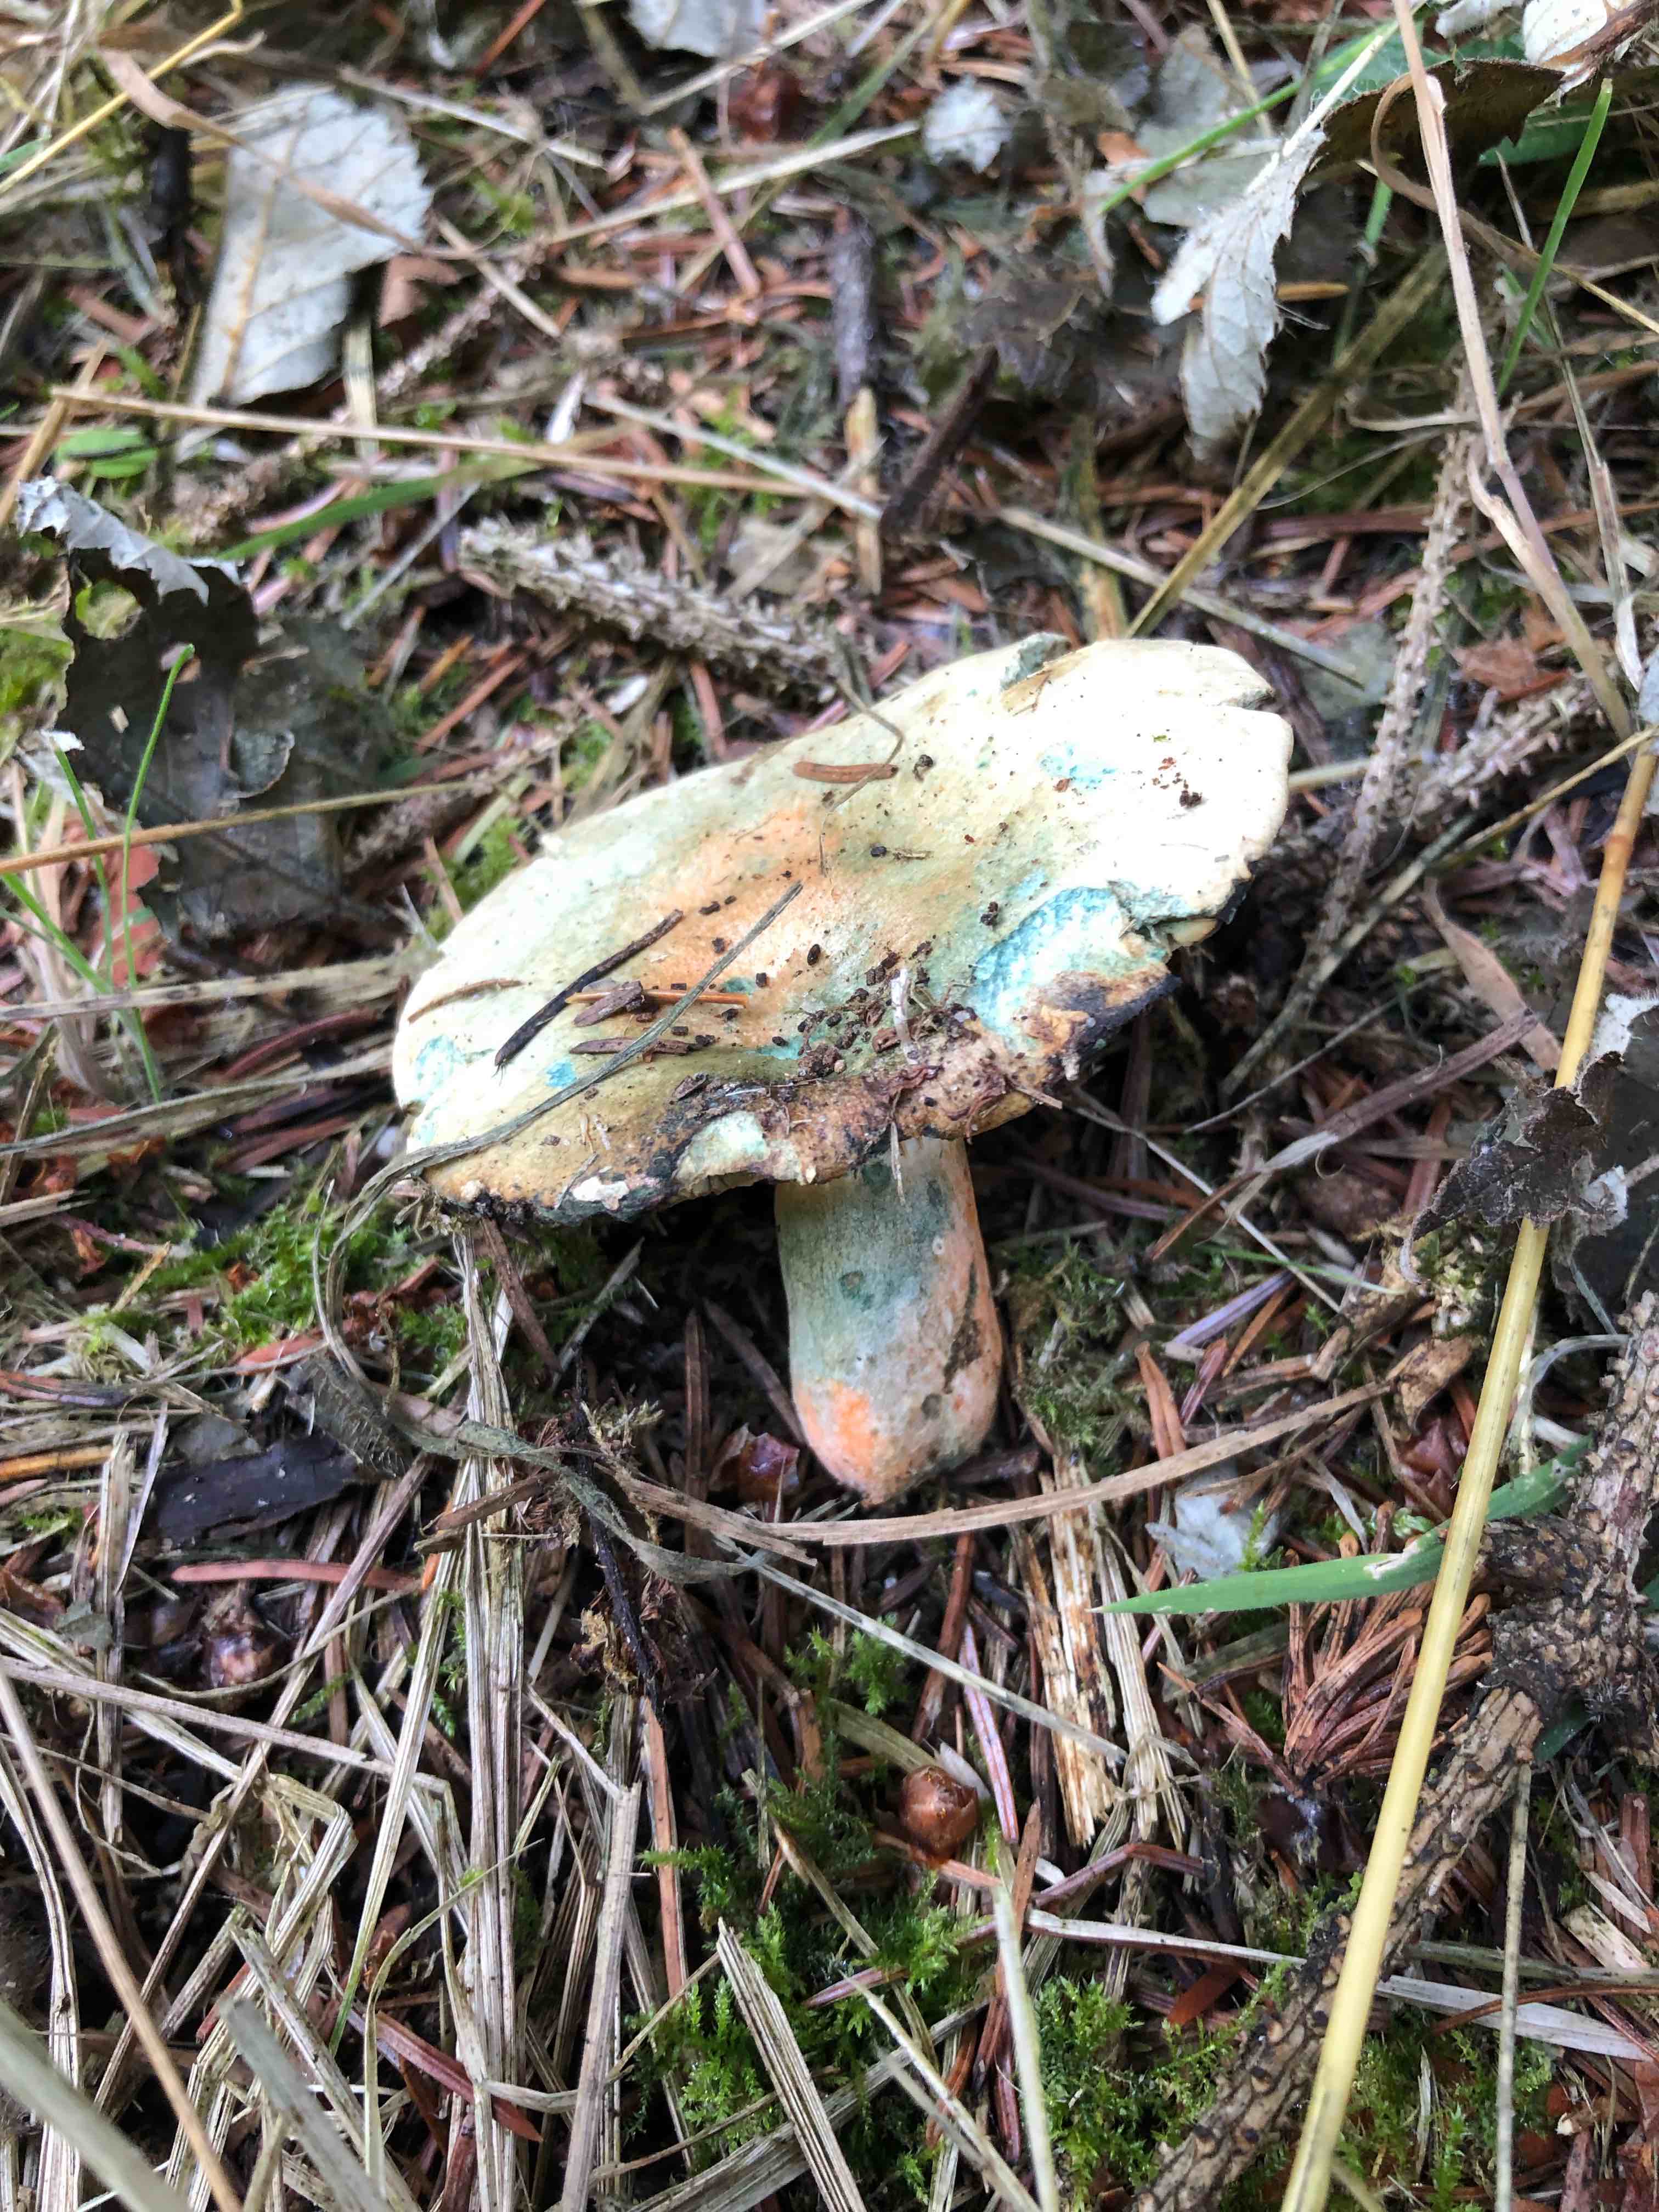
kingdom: Fungi
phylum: Basidiomycota
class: Agaricomycetes
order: Russulales
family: Russulaceae
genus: Lactarius
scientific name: Lactarius deterrimus
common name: gran-mælkehat
